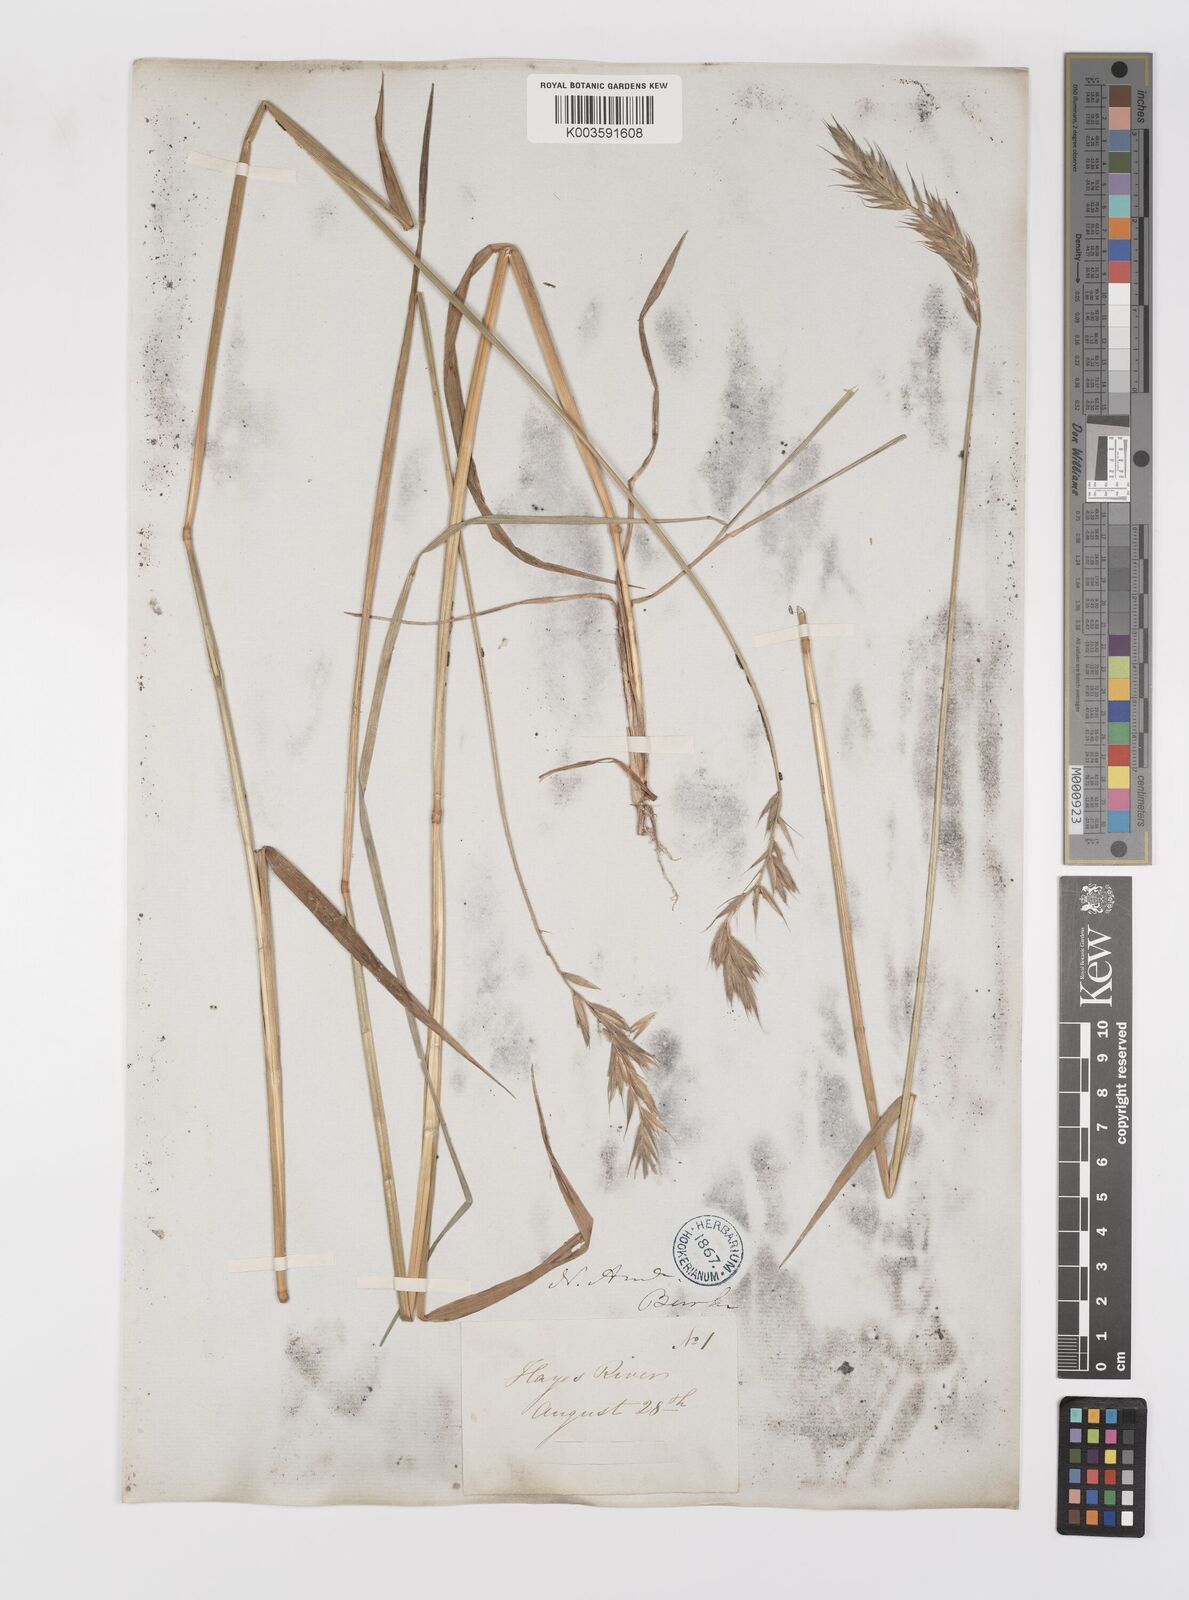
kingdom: Plantae
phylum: Tracheophyta
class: Liliopsida
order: Poales
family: Poaceae
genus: Leymus
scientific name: Leymus innovatus
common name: Boreal wild rye
